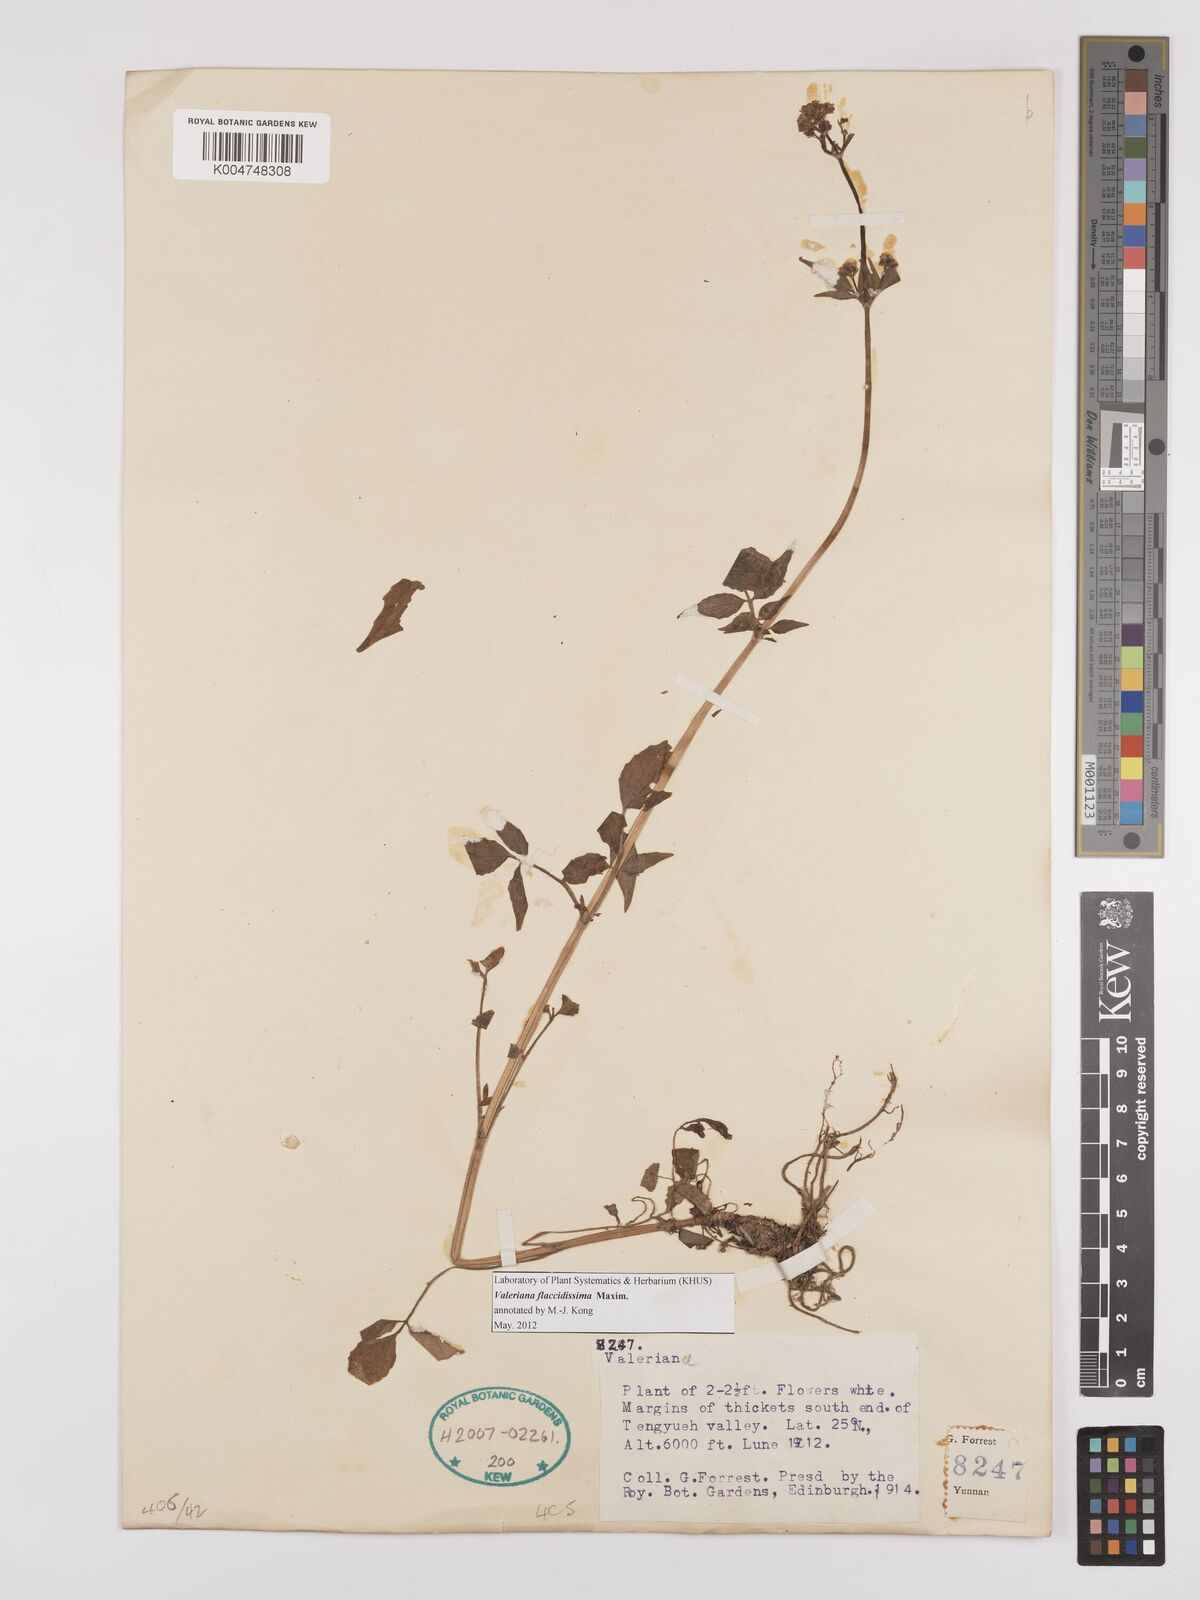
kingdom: Plantae
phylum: Tracheophyta
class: Magnoliopsida
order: Dipsacales
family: Caprifoliaceae
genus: Valeriana
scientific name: Valeriana flaccidissima
